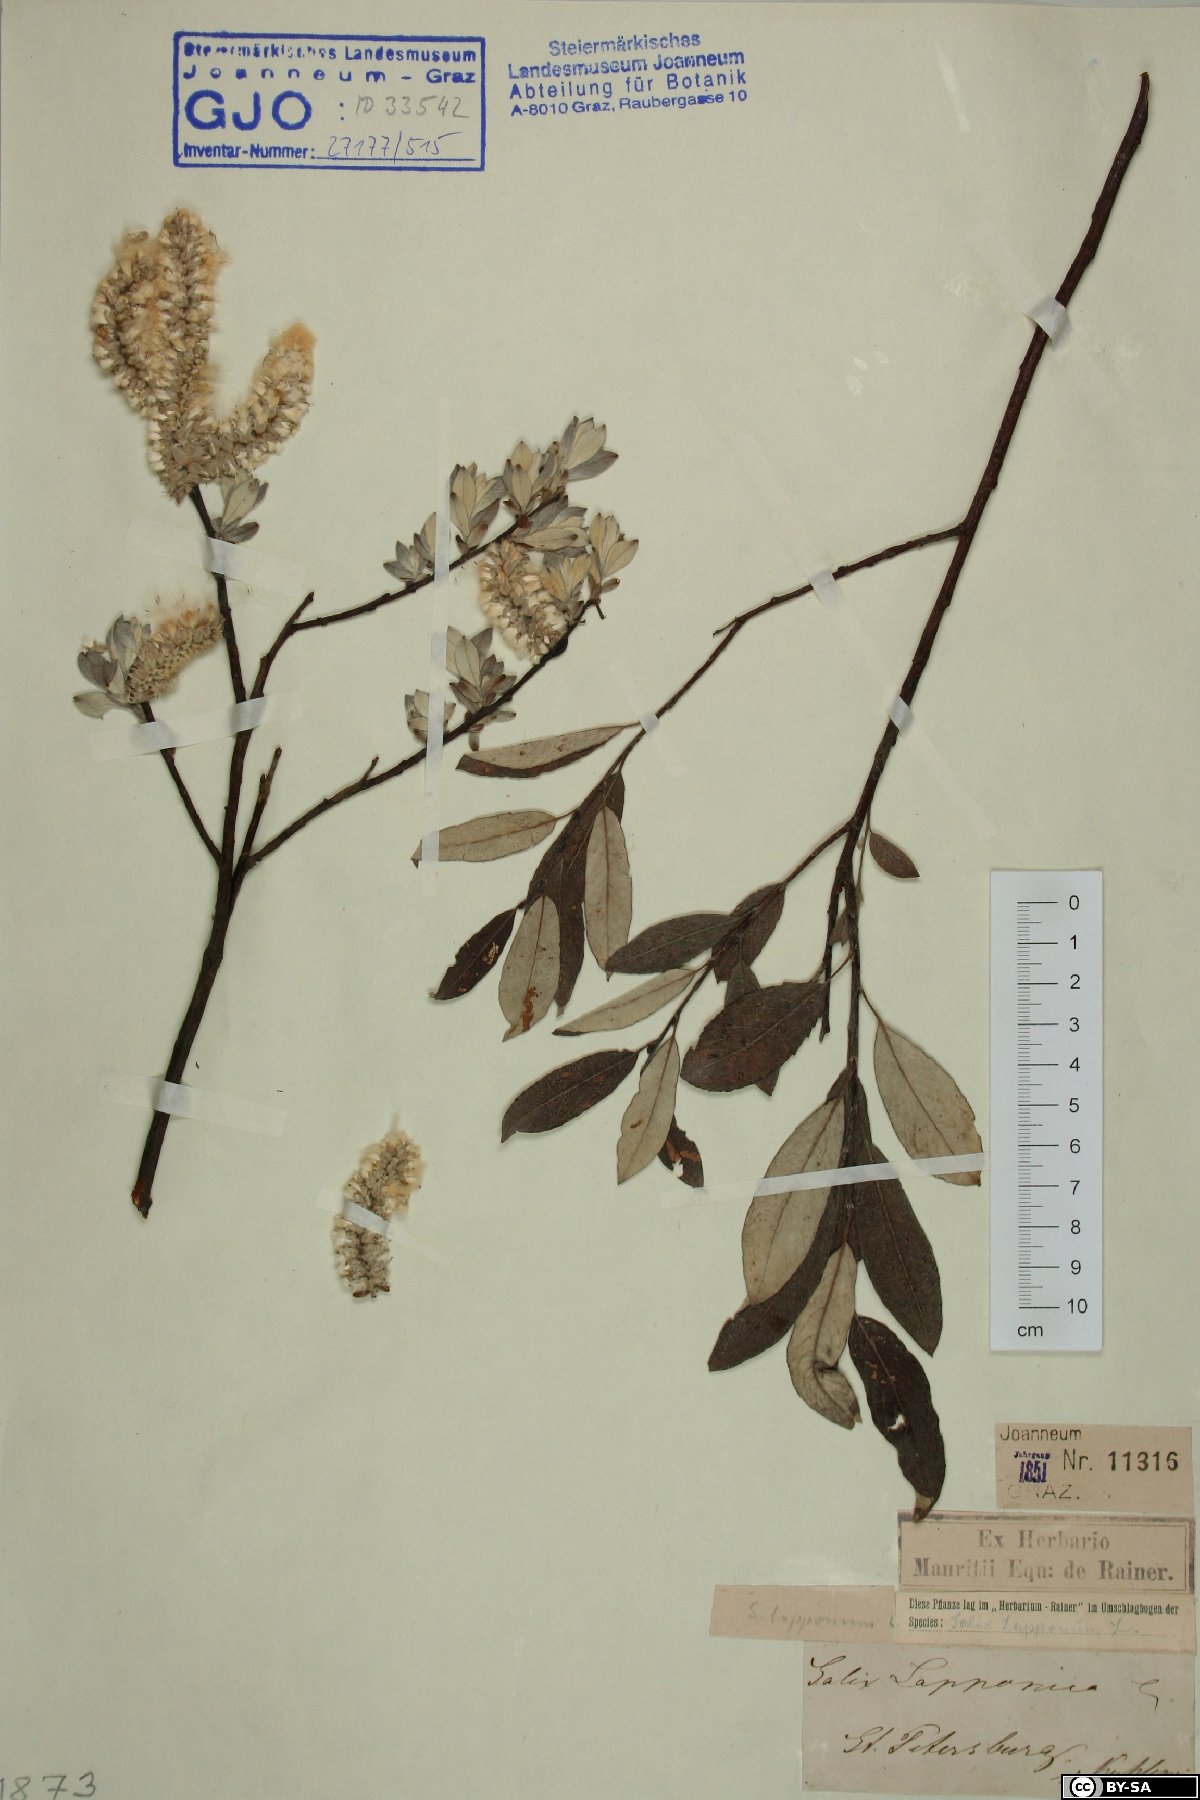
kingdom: Plantae
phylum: Tracheophyta
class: Magnoliopsida
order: Malpighiales
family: Salicaceae
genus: Salix
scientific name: Salix lapponum
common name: Downy willow
